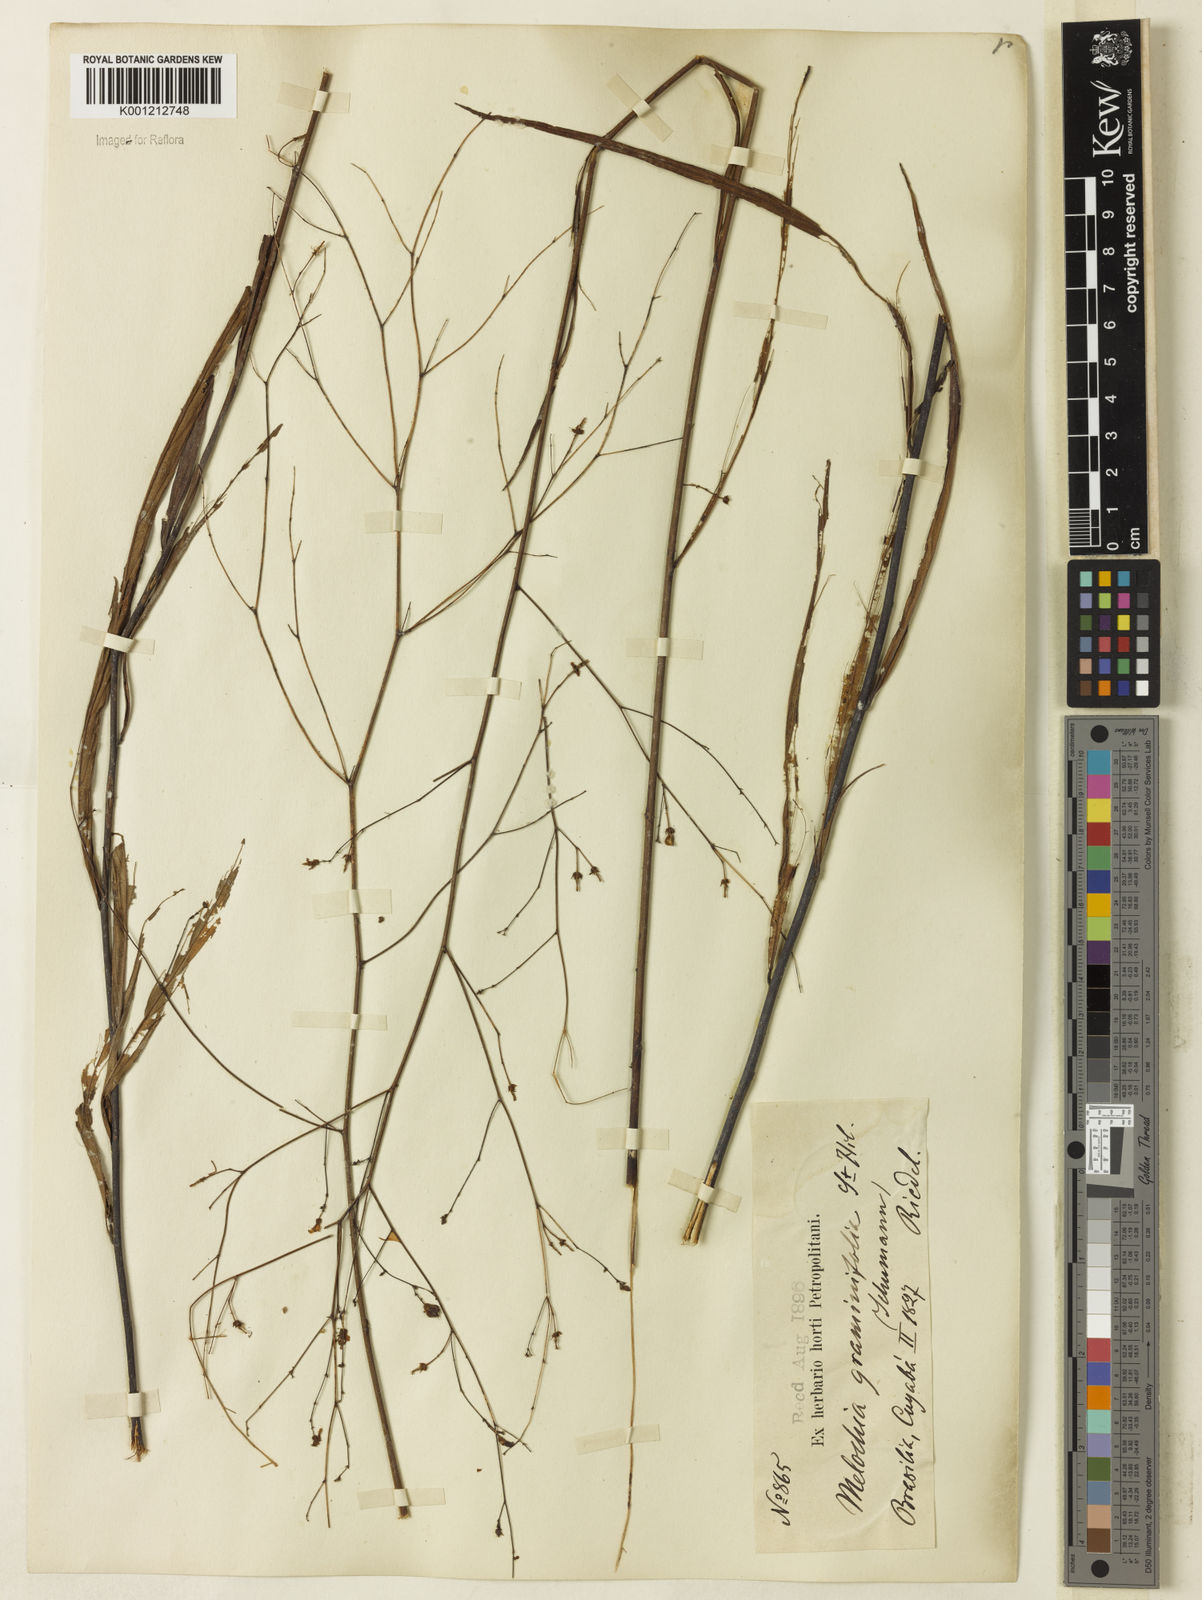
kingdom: Plantae
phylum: Tracheophyta
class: Magnoliopsida
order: Malvales
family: Malvaceae
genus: Melochia
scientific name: Melochia graminifolia
